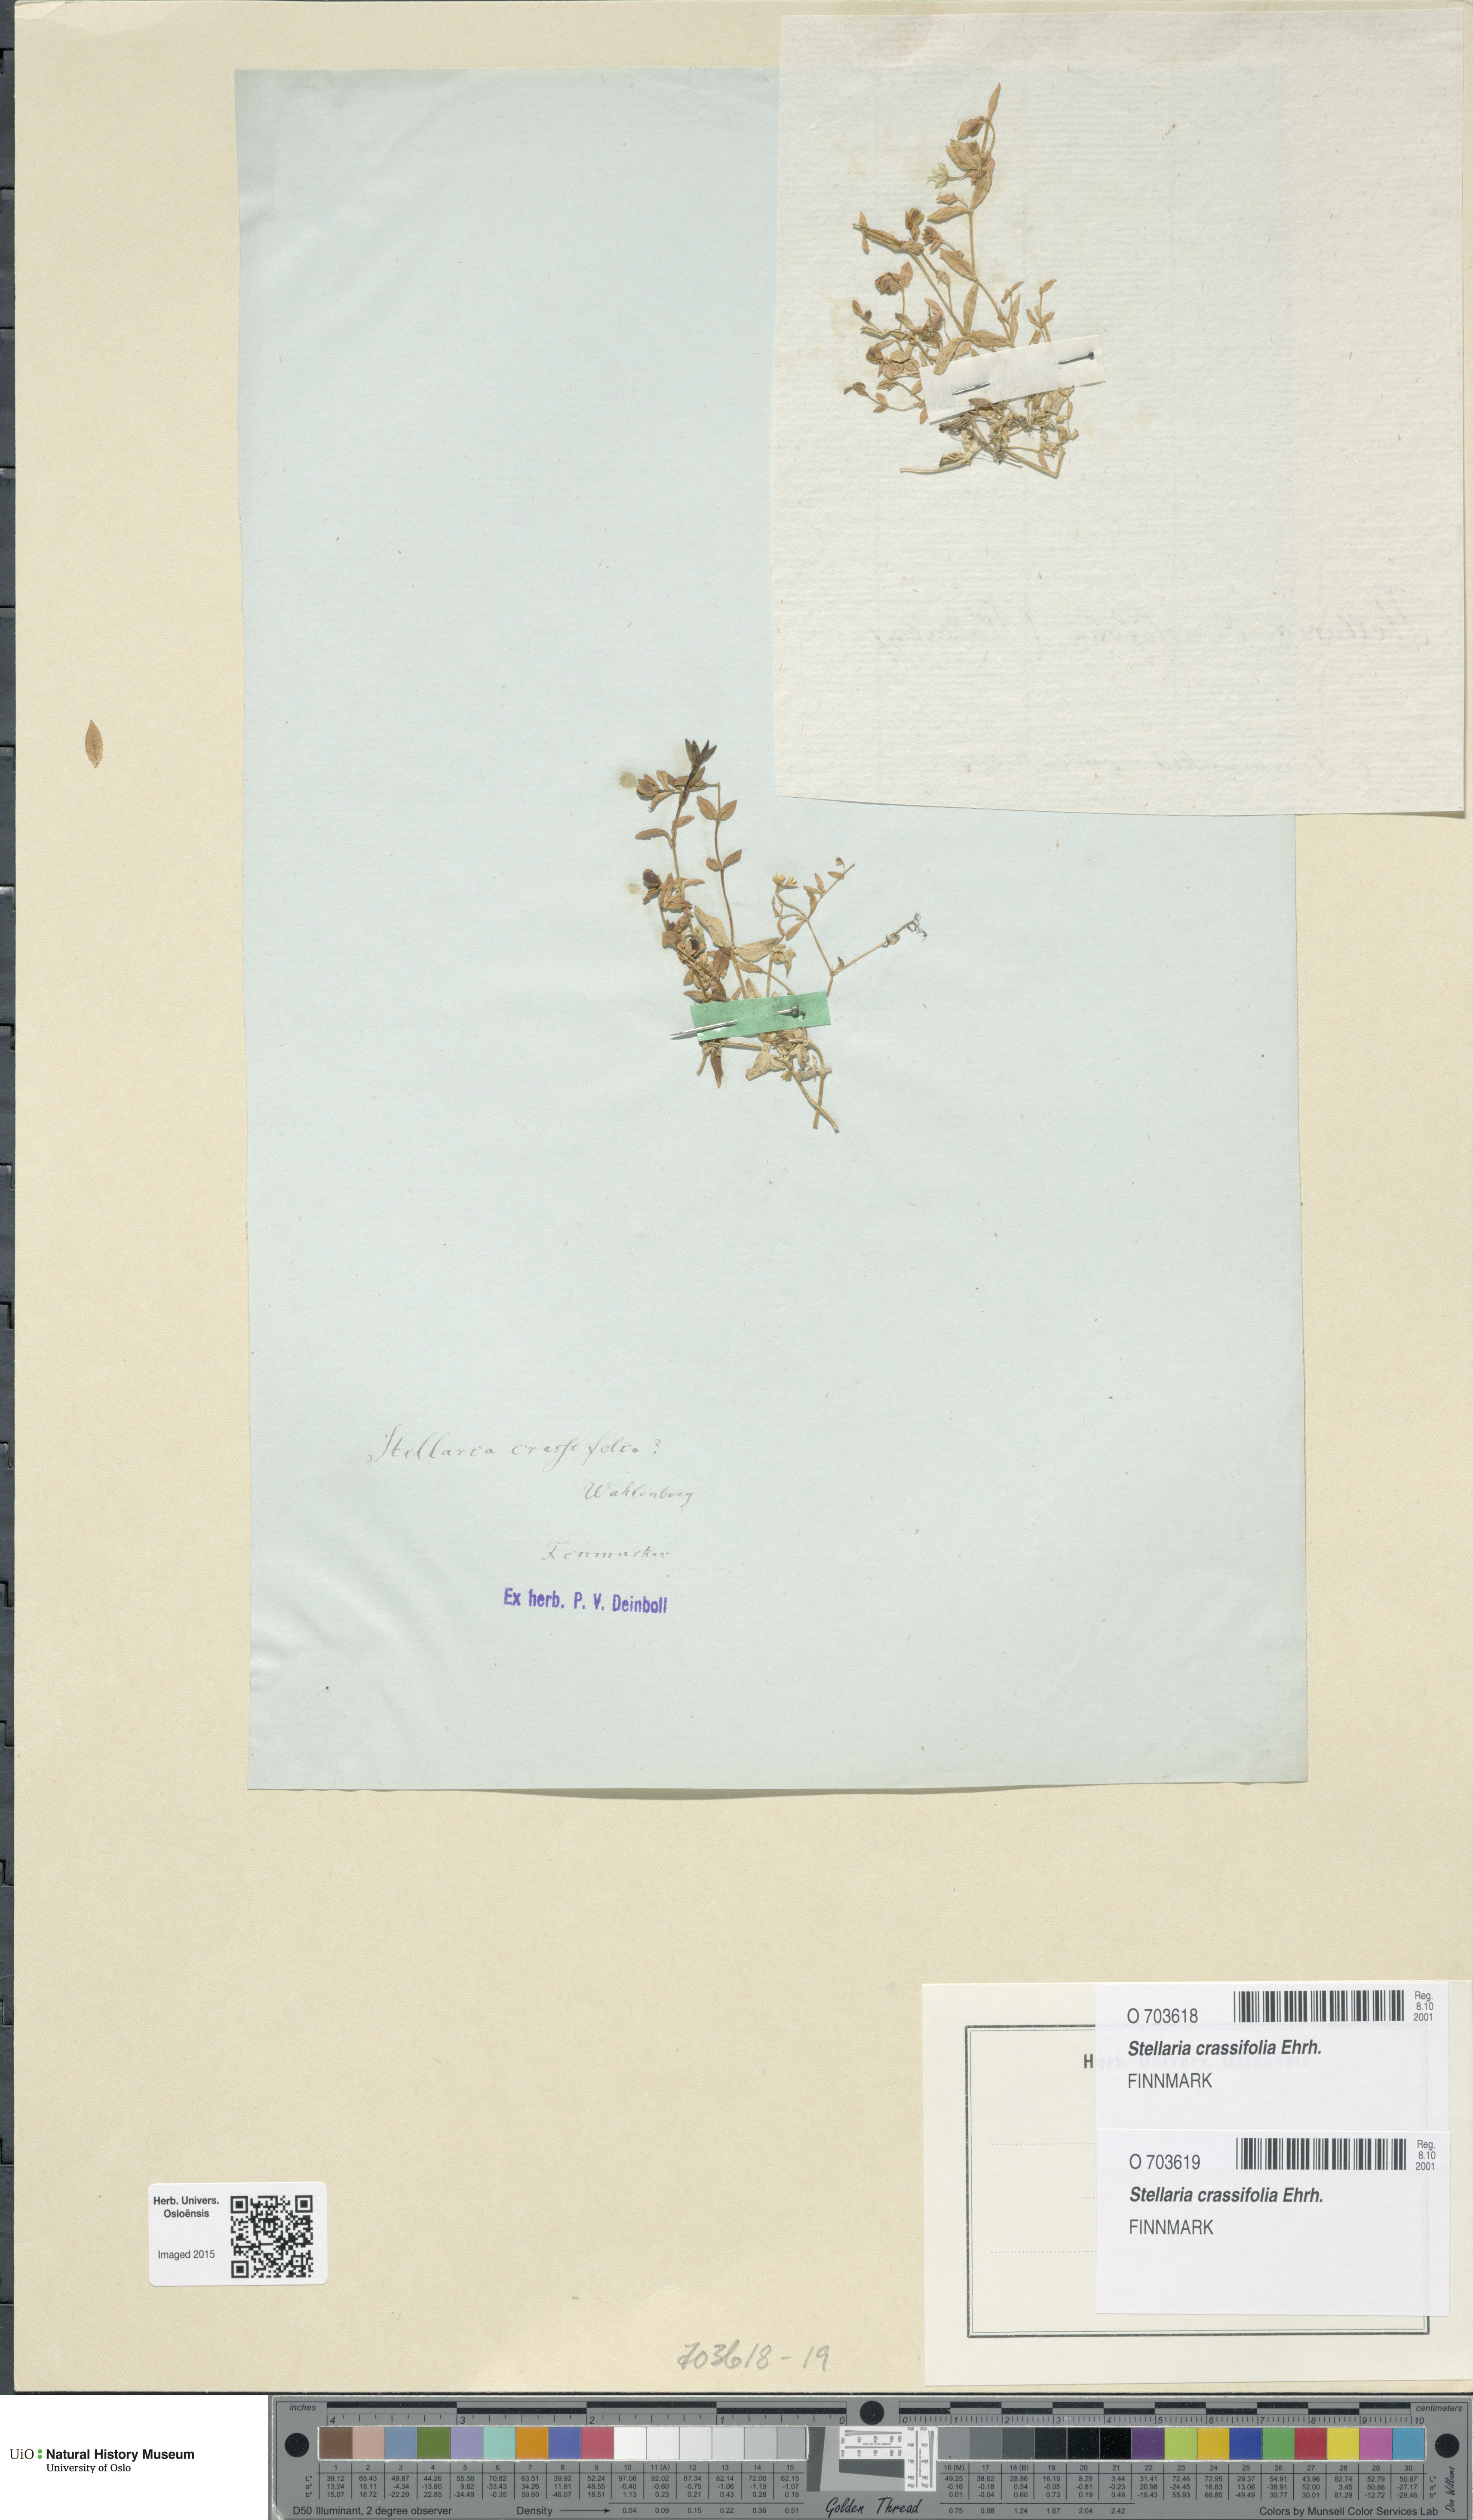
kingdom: Plantae
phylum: Tracheophyta
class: Magnoliopsida
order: Caryophyllales
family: Caryophyllaceae
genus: Stellaria
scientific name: Stellaria crassifolia
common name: Fleshy starwort
